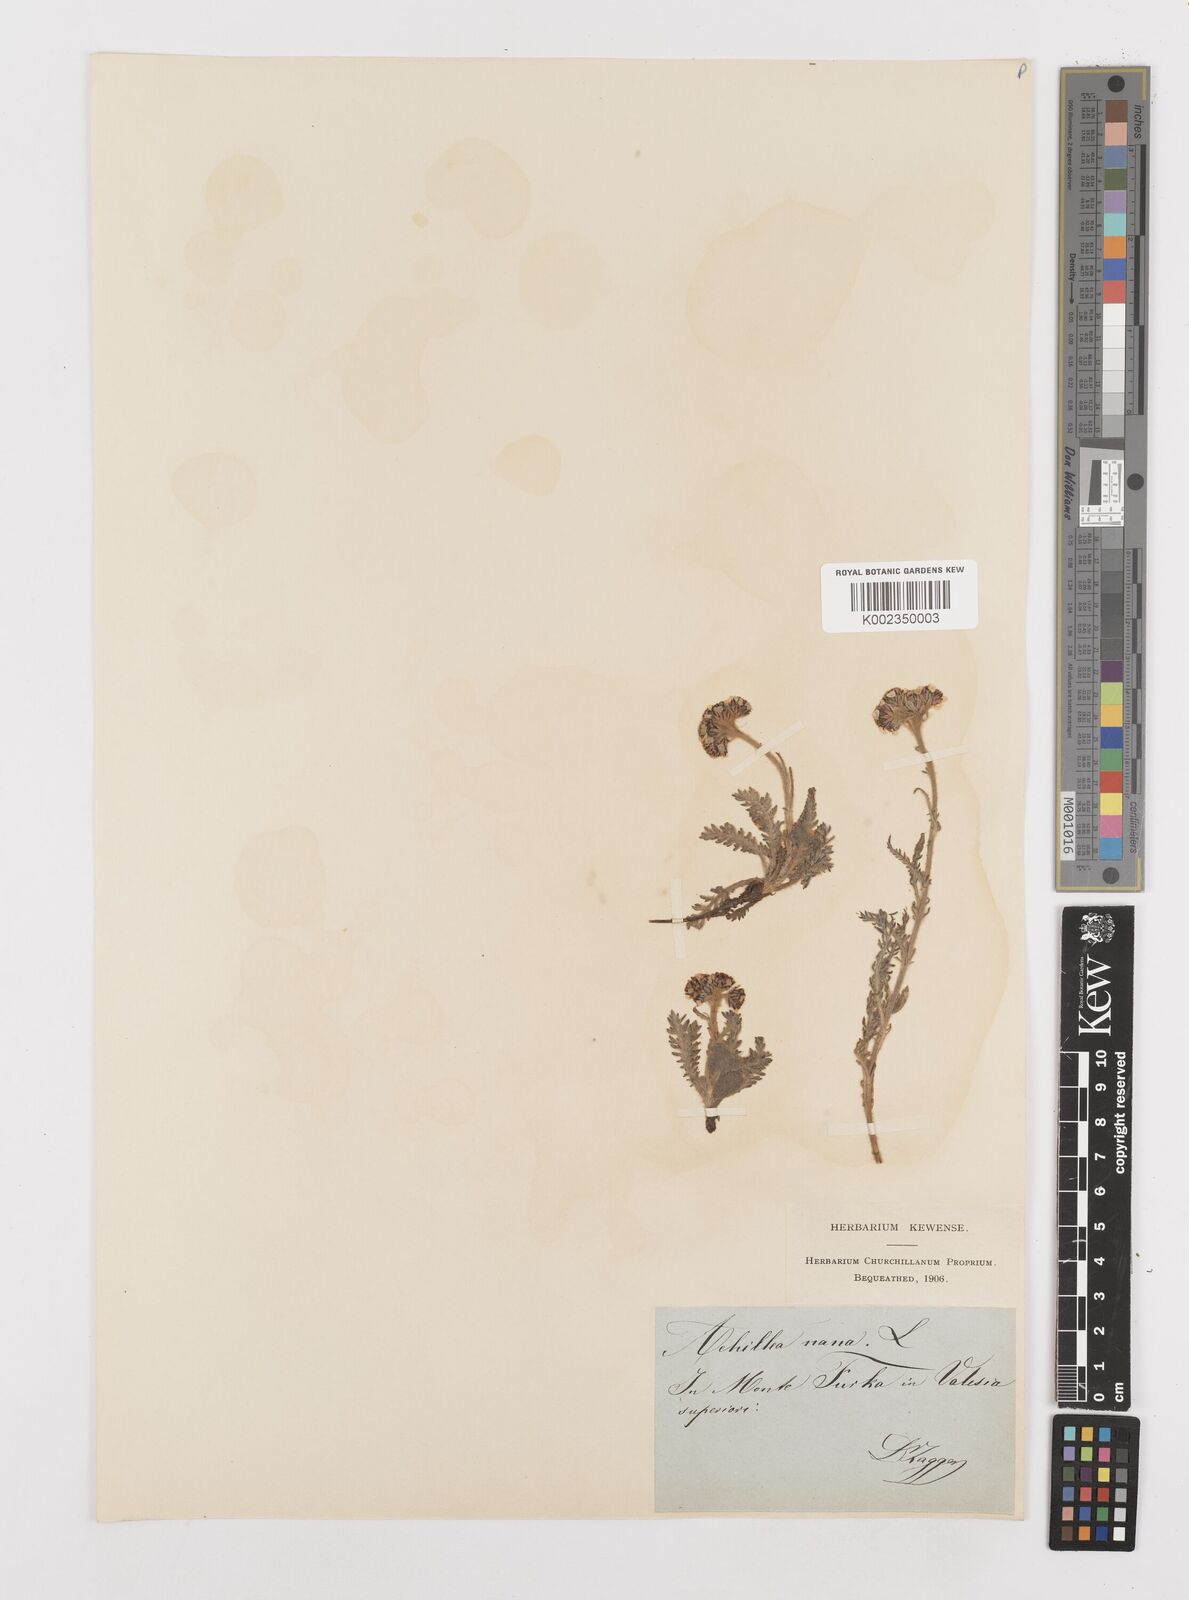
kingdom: Plantae
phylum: Tracheophyta
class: Magnoliopsida
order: Asterales
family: Asteraceae
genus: Achillea
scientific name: Achillea nana
